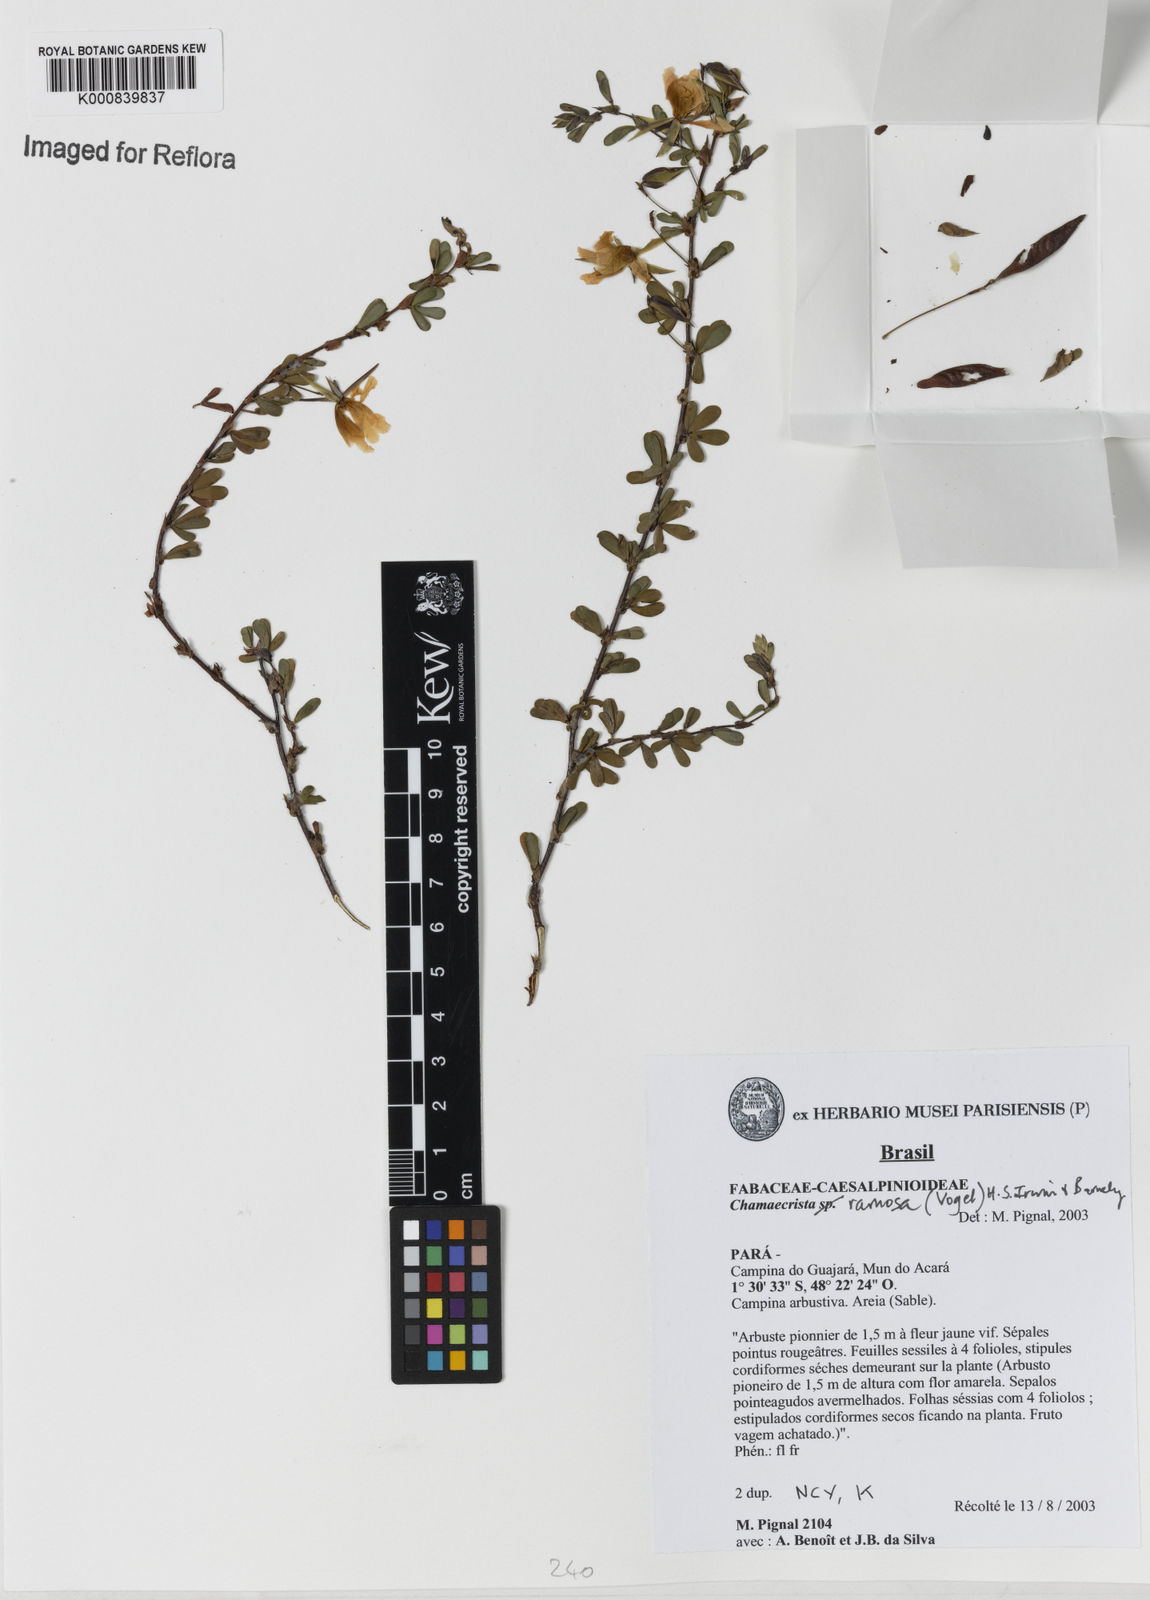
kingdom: Plantae
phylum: Tracheophyta
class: Magnoliopsida
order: Fabales
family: Fabaceae
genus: Chamaecrista
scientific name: Chamaecrista ramosa
